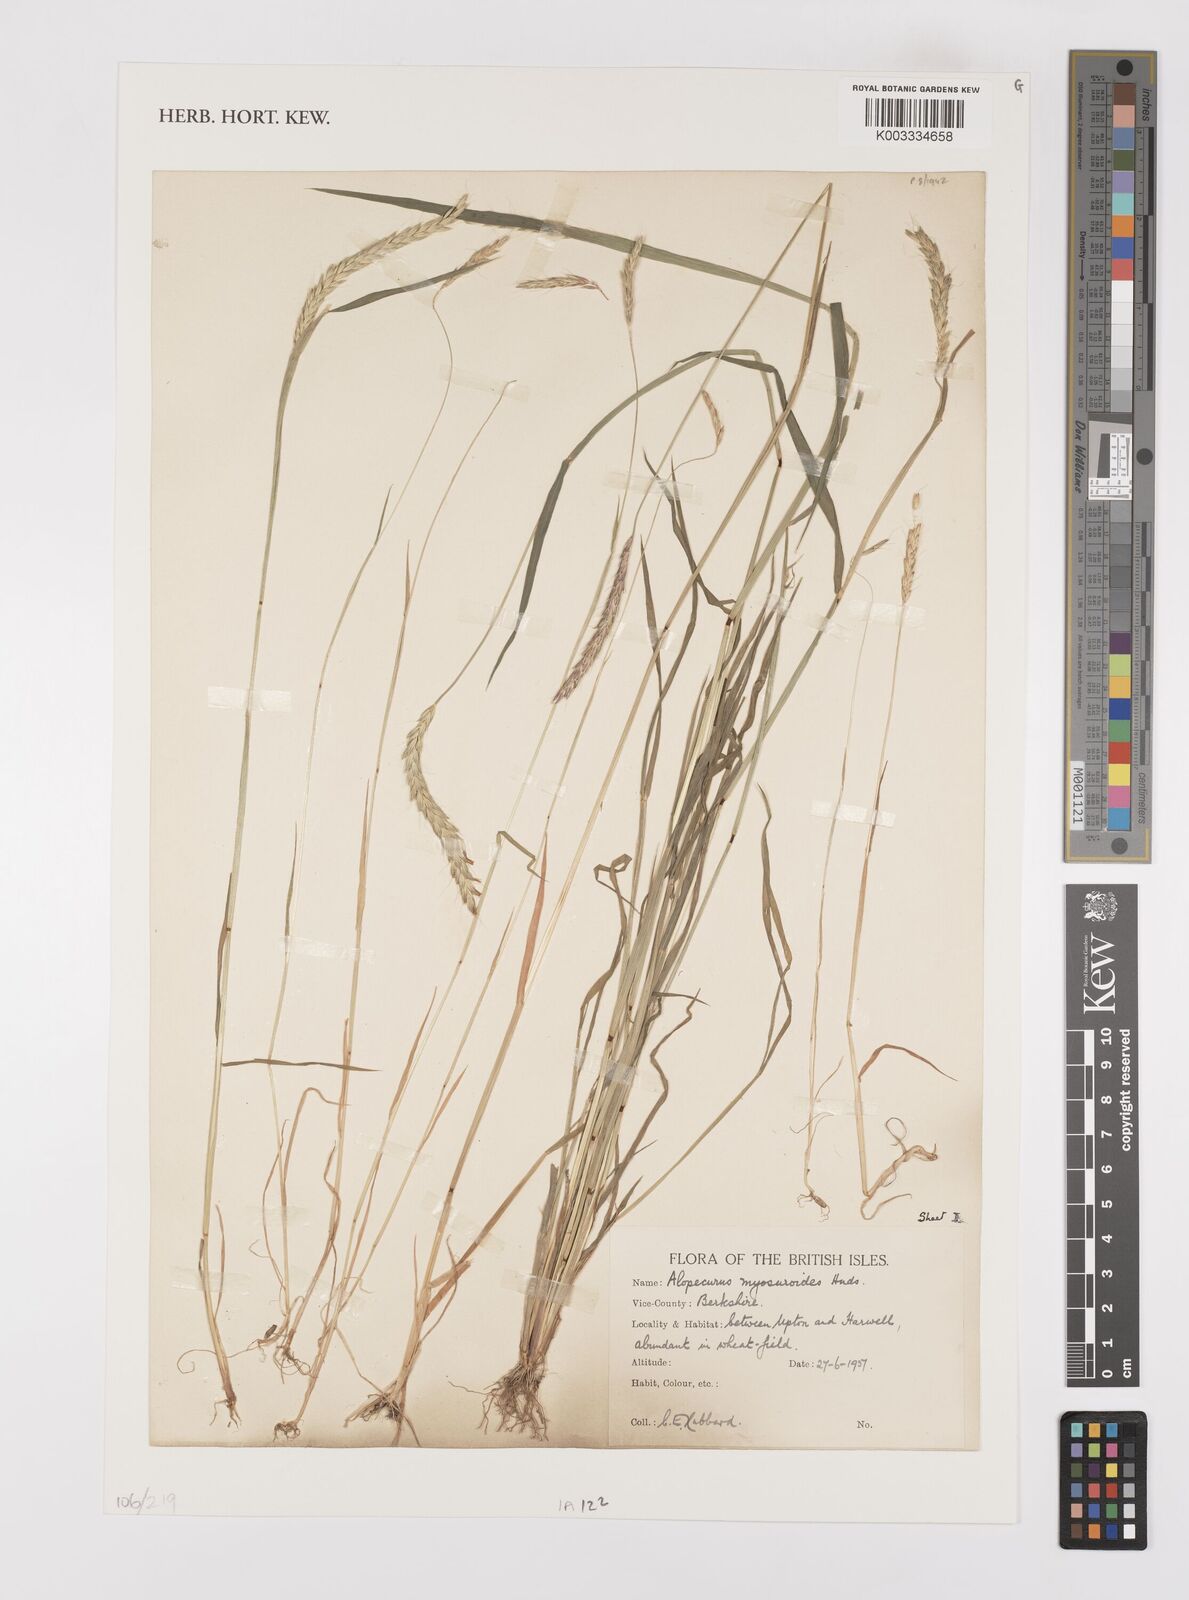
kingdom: Plantae
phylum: Tracheophyta
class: Liliopsida
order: Poales
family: Poaceae
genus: Alopecurus
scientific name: Alopecurus myosuroides
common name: Black-grass
